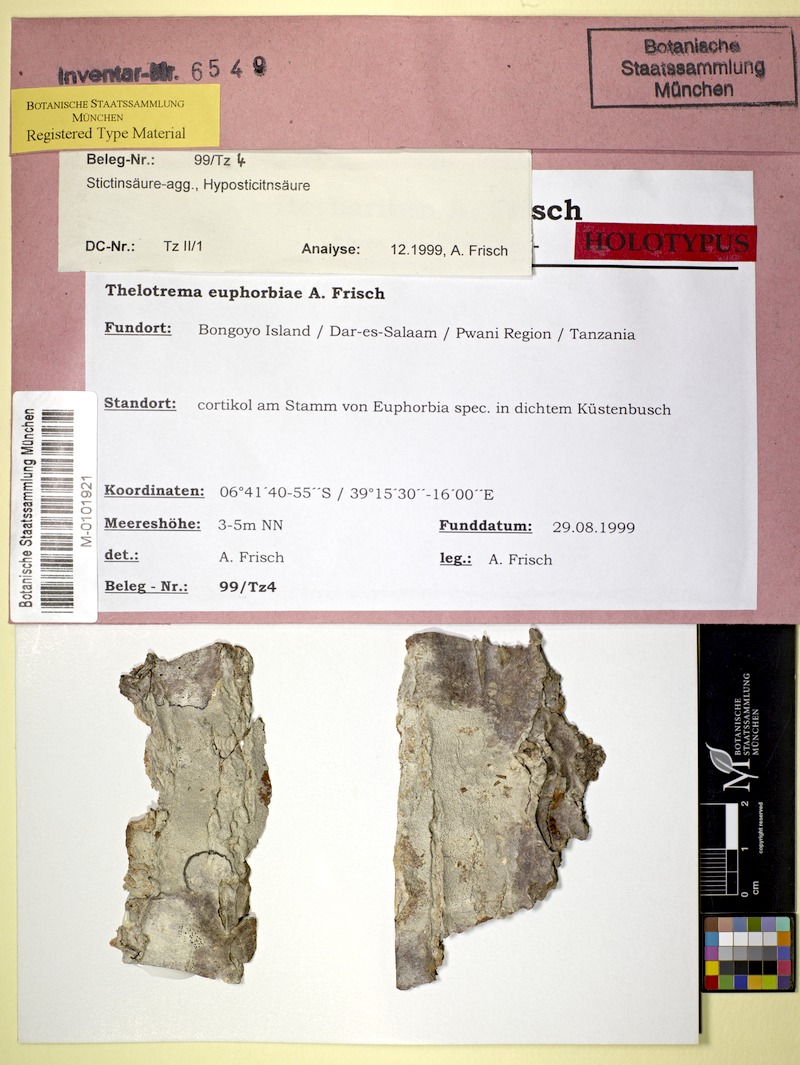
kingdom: Fungi
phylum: Ascomycota
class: Lecanoromycetes
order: Ostropales
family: Graphidaceae
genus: Thelotrema
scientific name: Thelotrema euphorbiae
